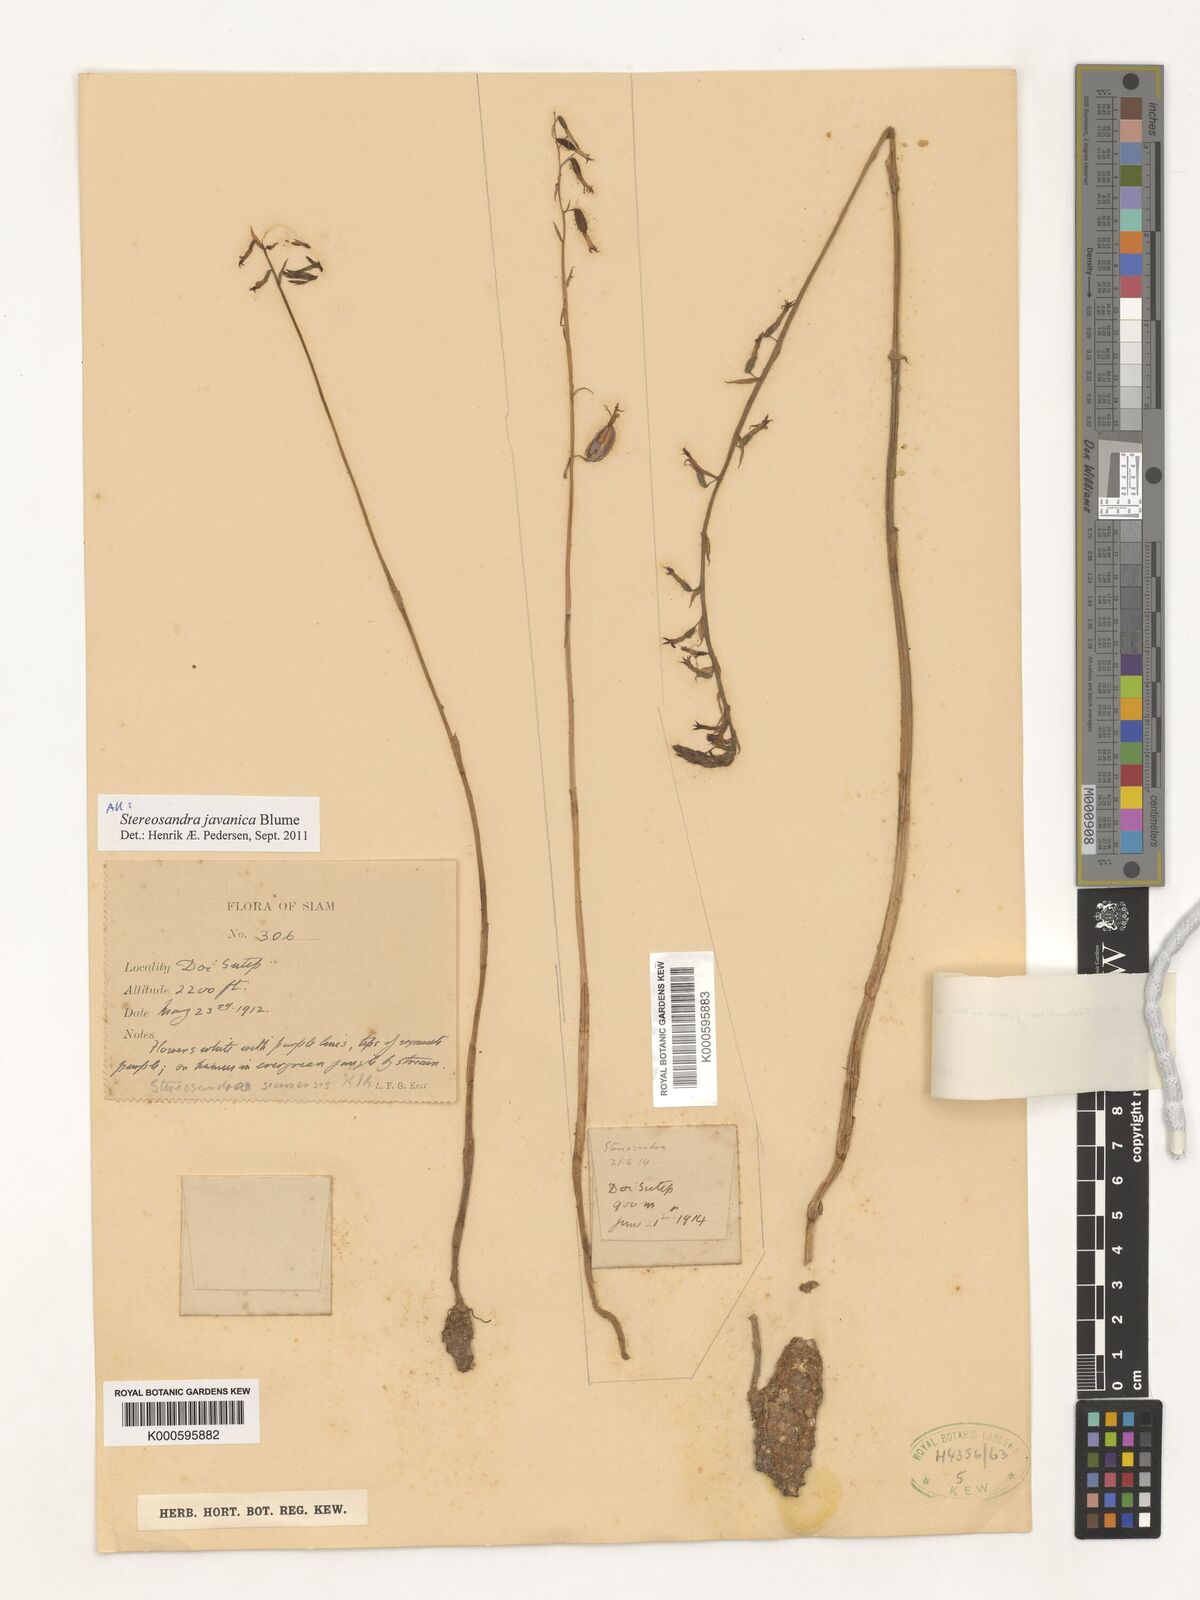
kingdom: Plantae
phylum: Tracheophyta
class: Liliopsida
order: Asparagales
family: Orchidaceae
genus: Stereosandra
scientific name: Stereosandra javanica
